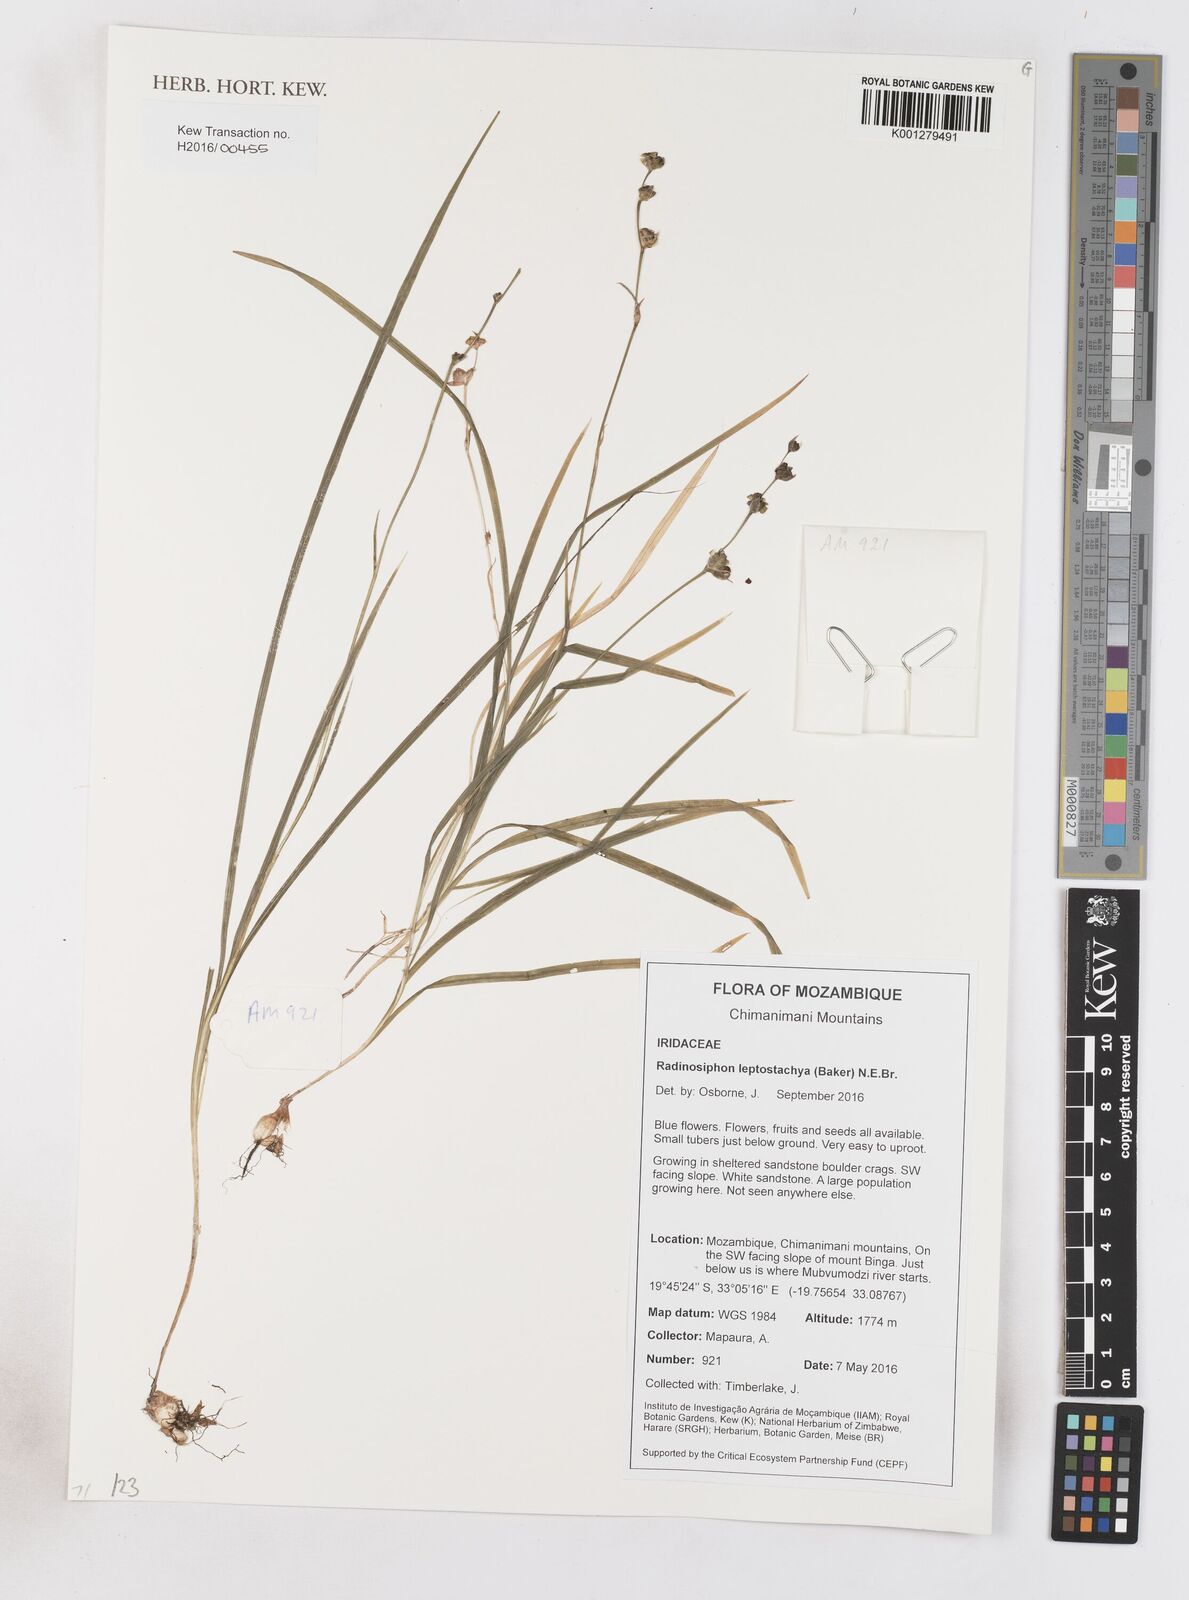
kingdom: Plantae
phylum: Tracheophyta
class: Liliopsida
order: Asparagales
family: Iridaceae
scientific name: Iridaceae
